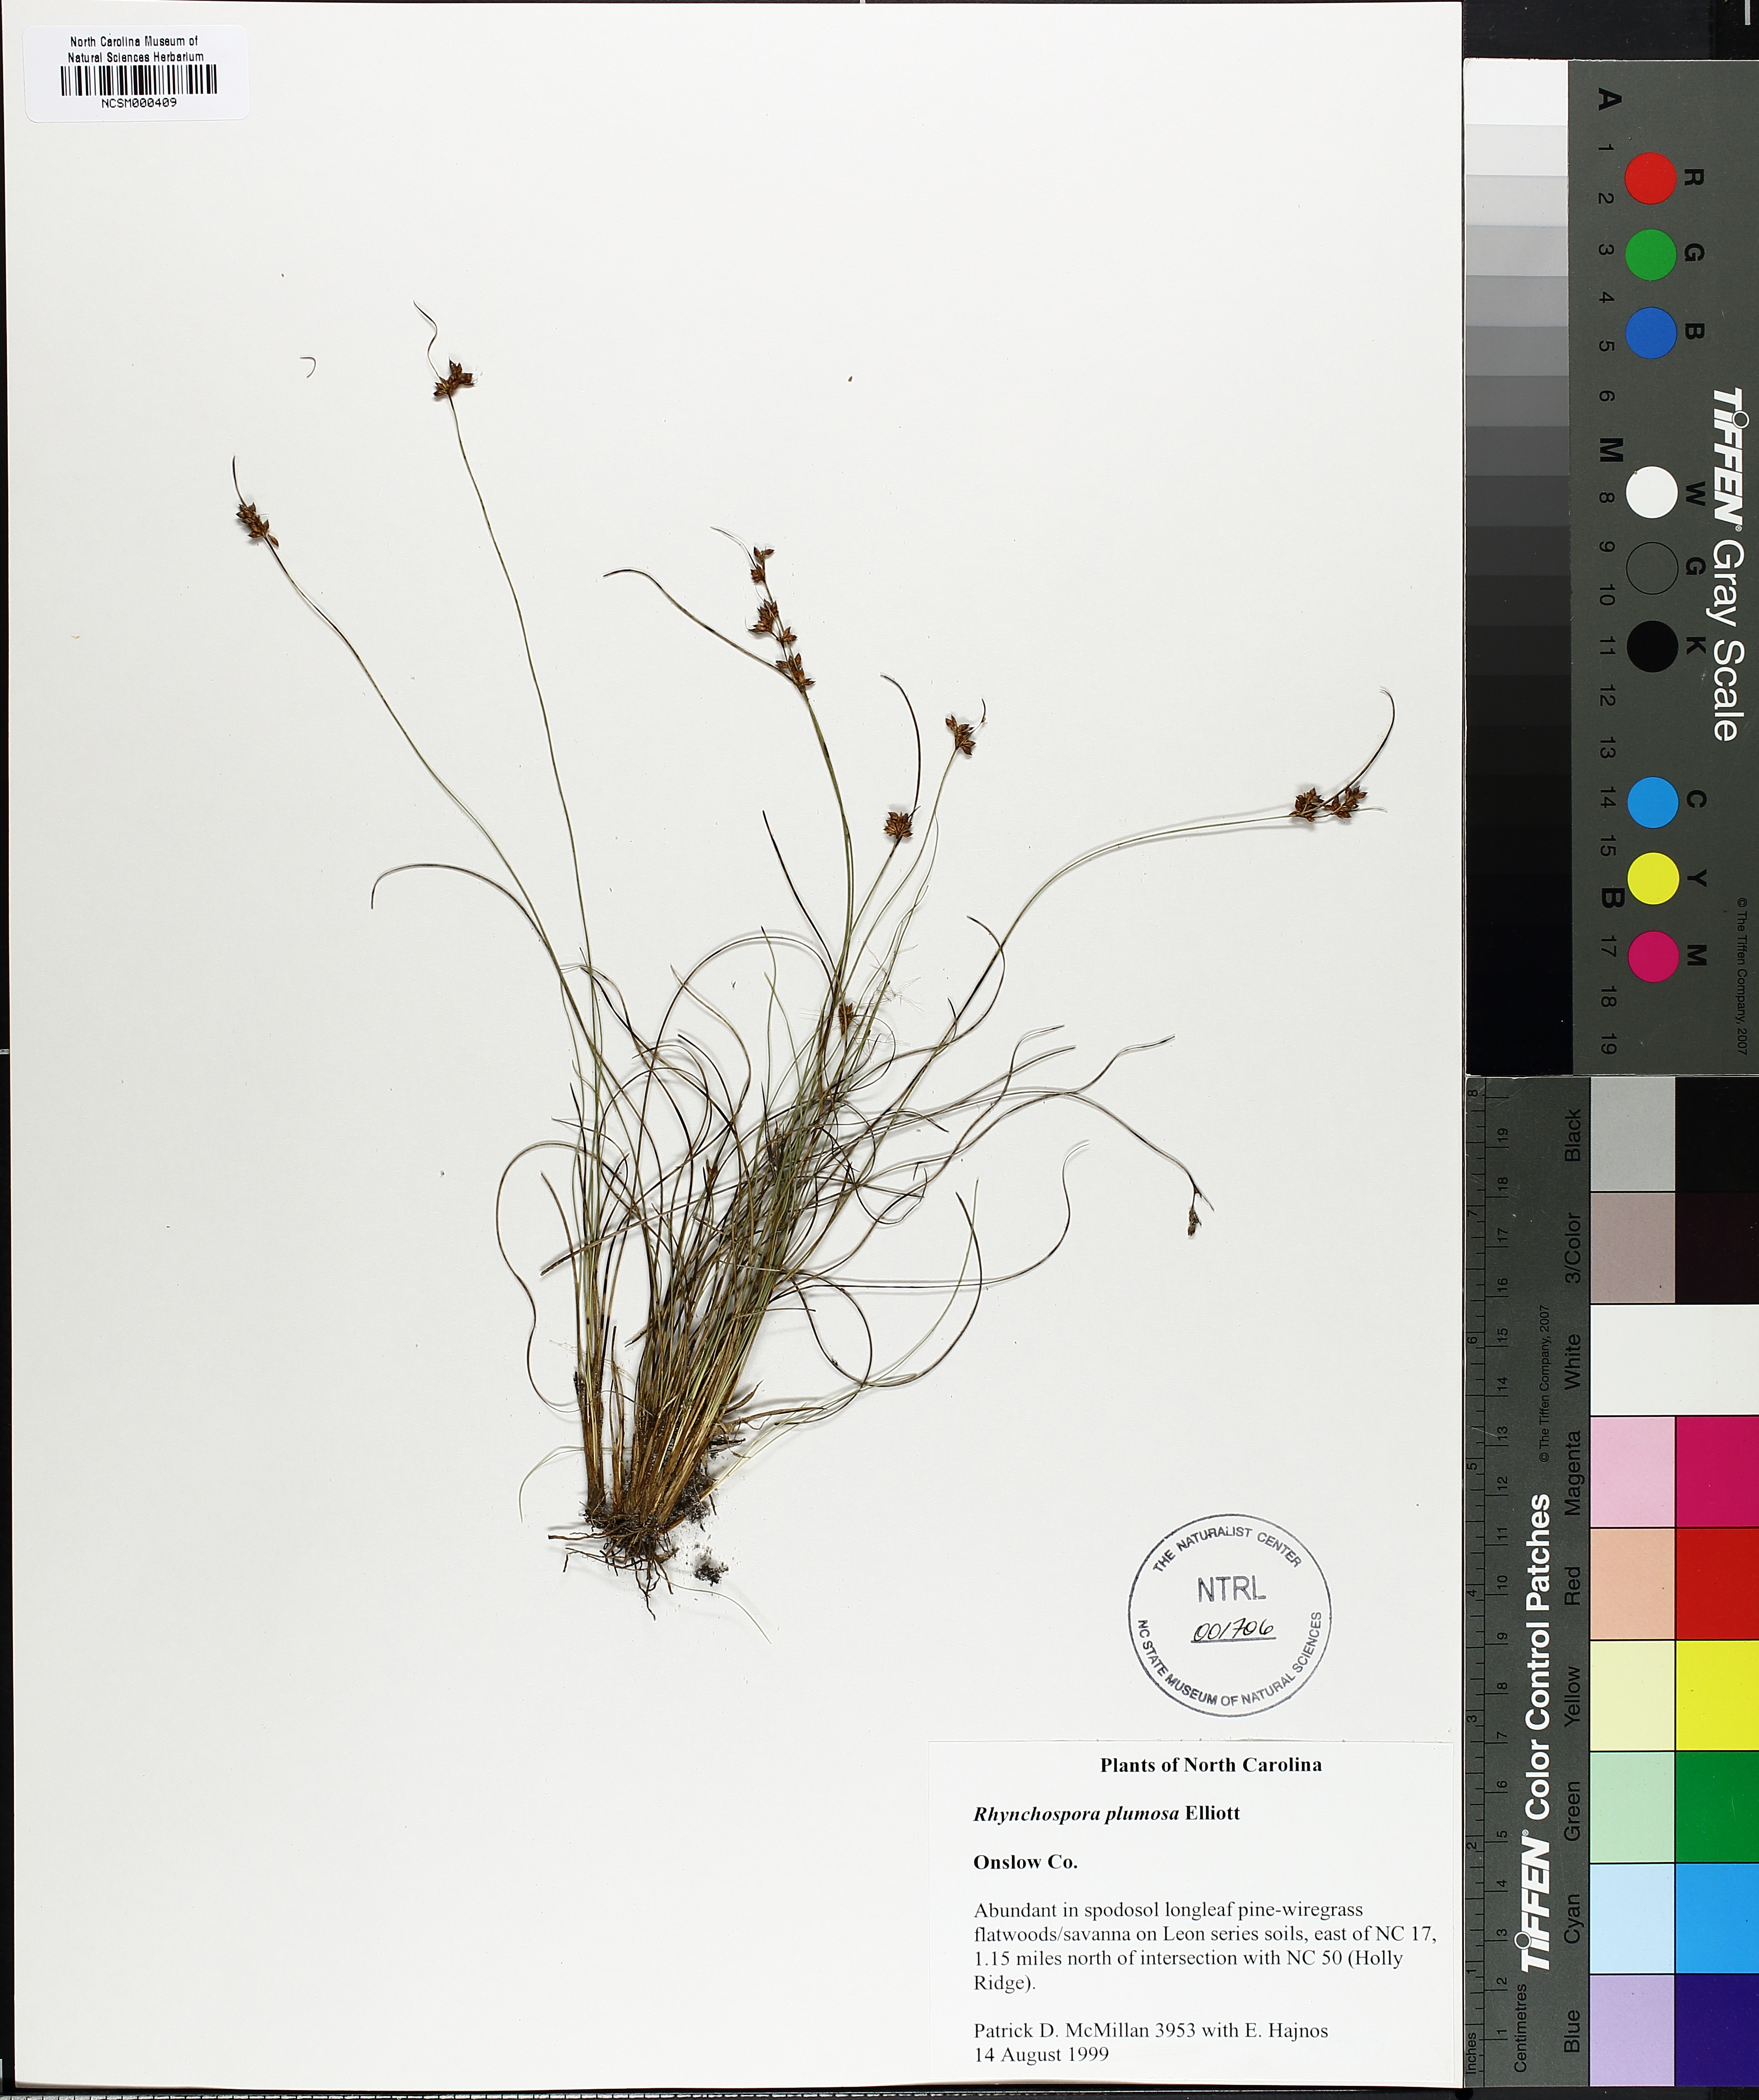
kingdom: Plantae
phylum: Tracheophyta
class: Liliopsida
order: Poales
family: Cyperaceae
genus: Rhynchospora
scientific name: Rhynchospora plumosa
